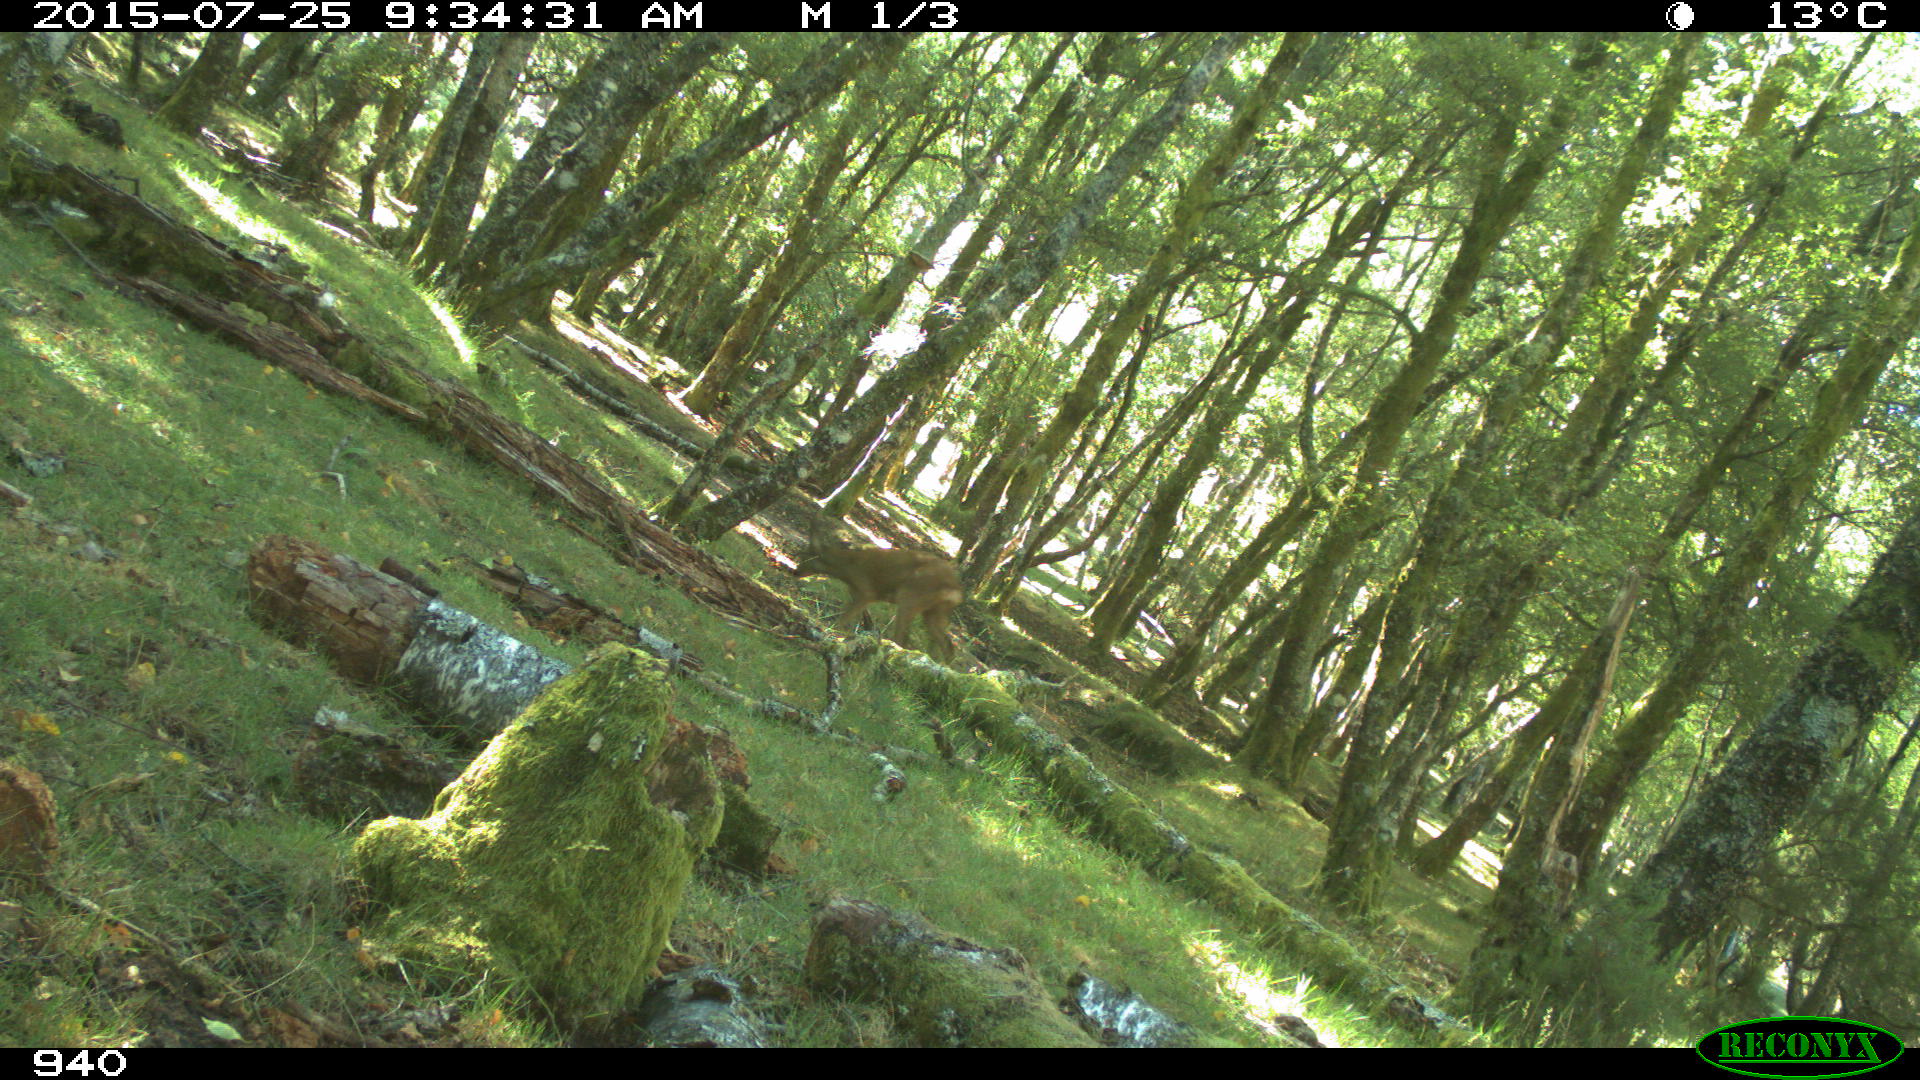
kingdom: Animalia
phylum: Chordata
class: Mammalia
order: Artiodactyla
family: Cervidae
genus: Capreolus
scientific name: Capreolus capreolus
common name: Western roe deer
